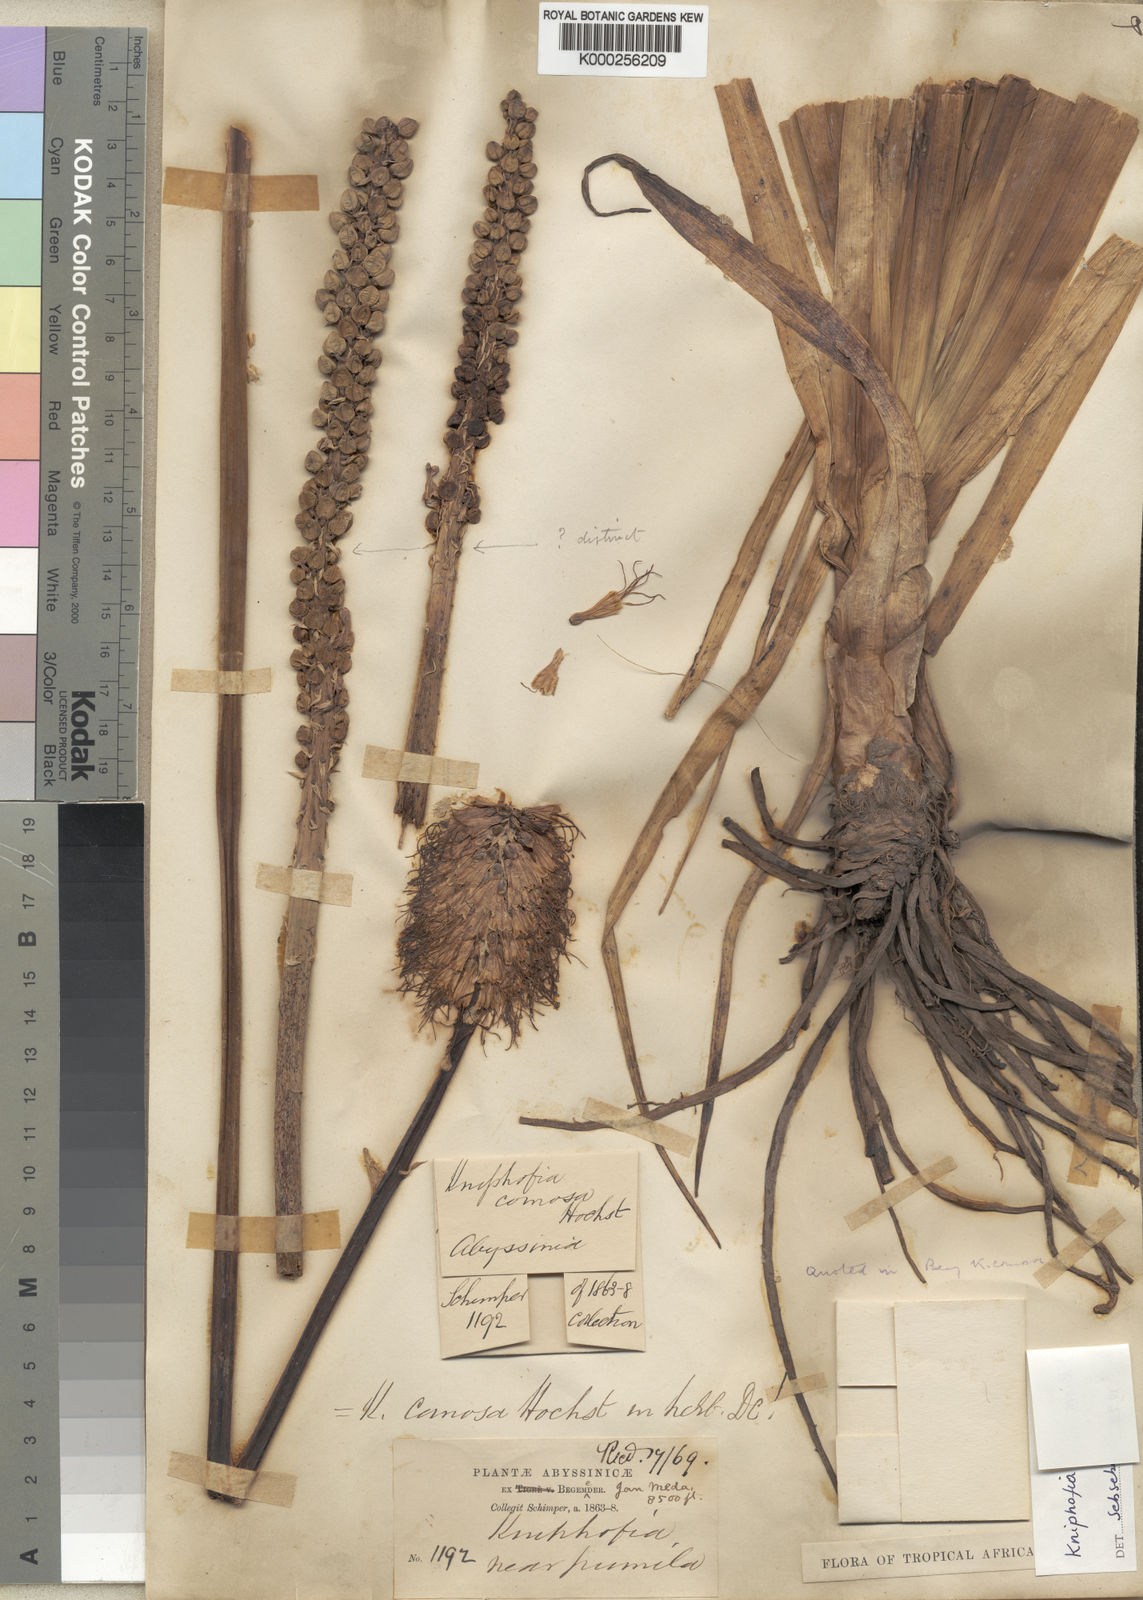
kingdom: Plantae
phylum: Tracheophyta
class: Liliopsida
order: Asparagales
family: Asphodelaceae
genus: Kniphofia
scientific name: Kniphofia pumila
